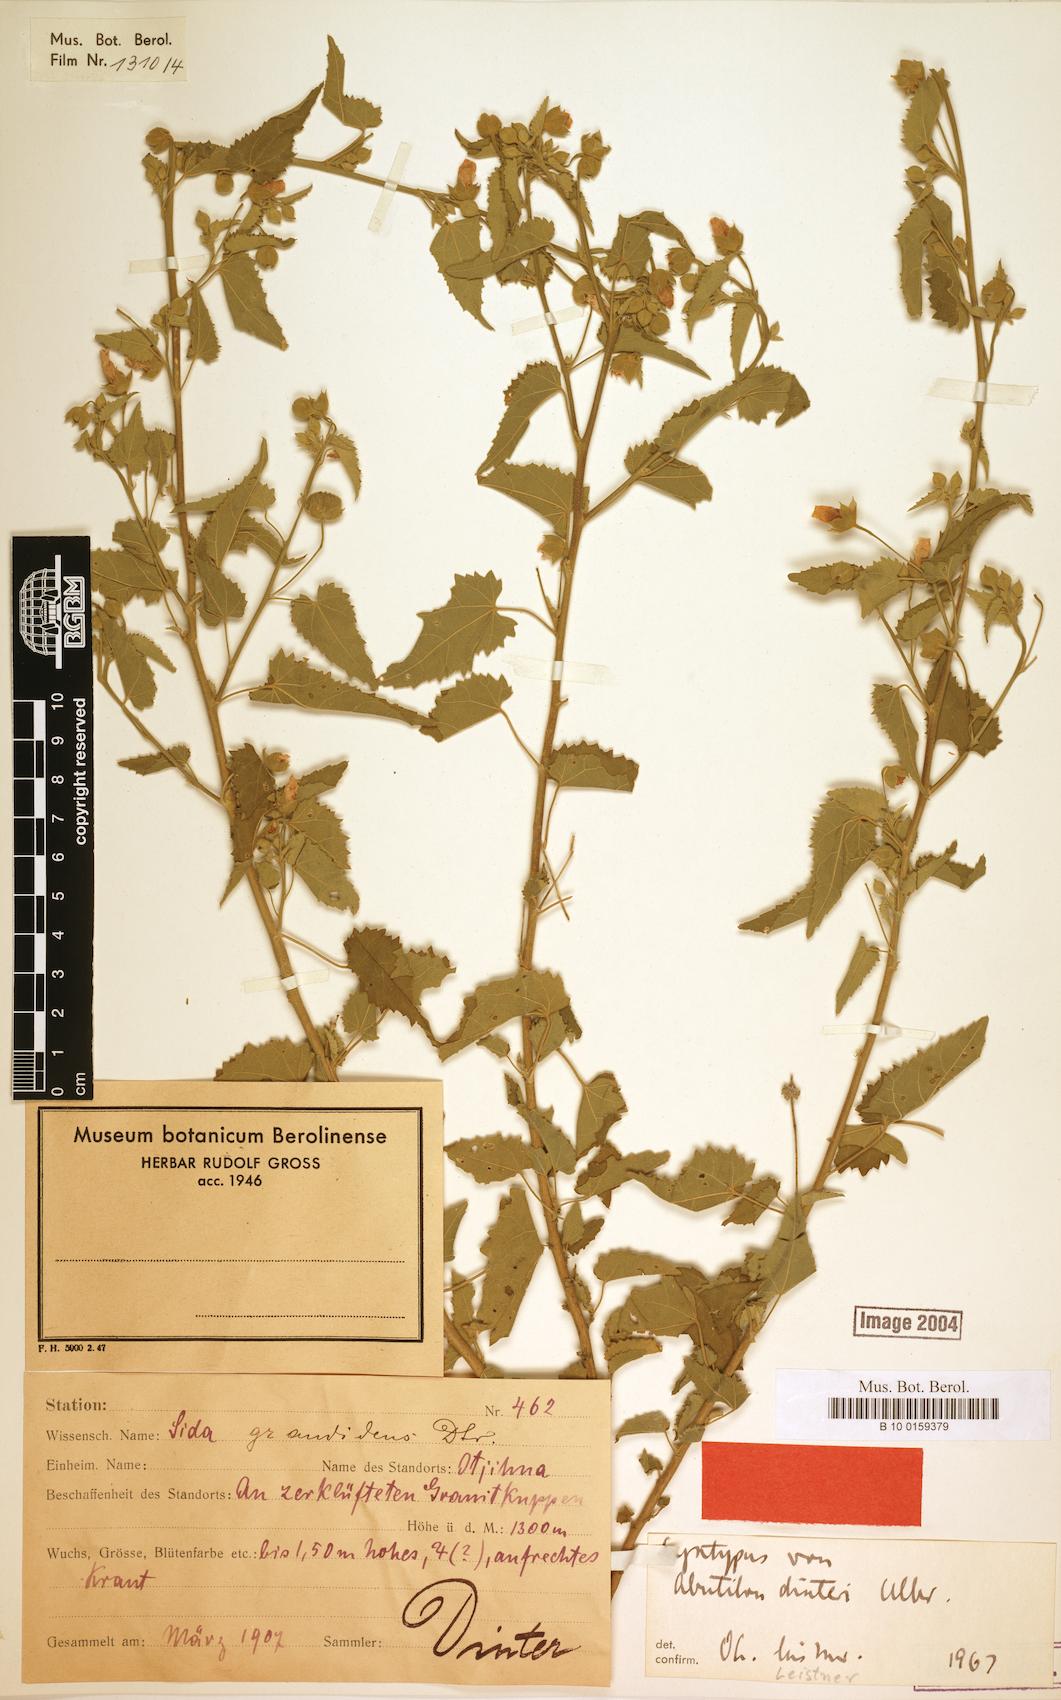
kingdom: Plantae
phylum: Tracheophyta
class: Magnoliopsida
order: Malvales
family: Malvaceae
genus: Abutilon
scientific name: Abutilon dinteri
